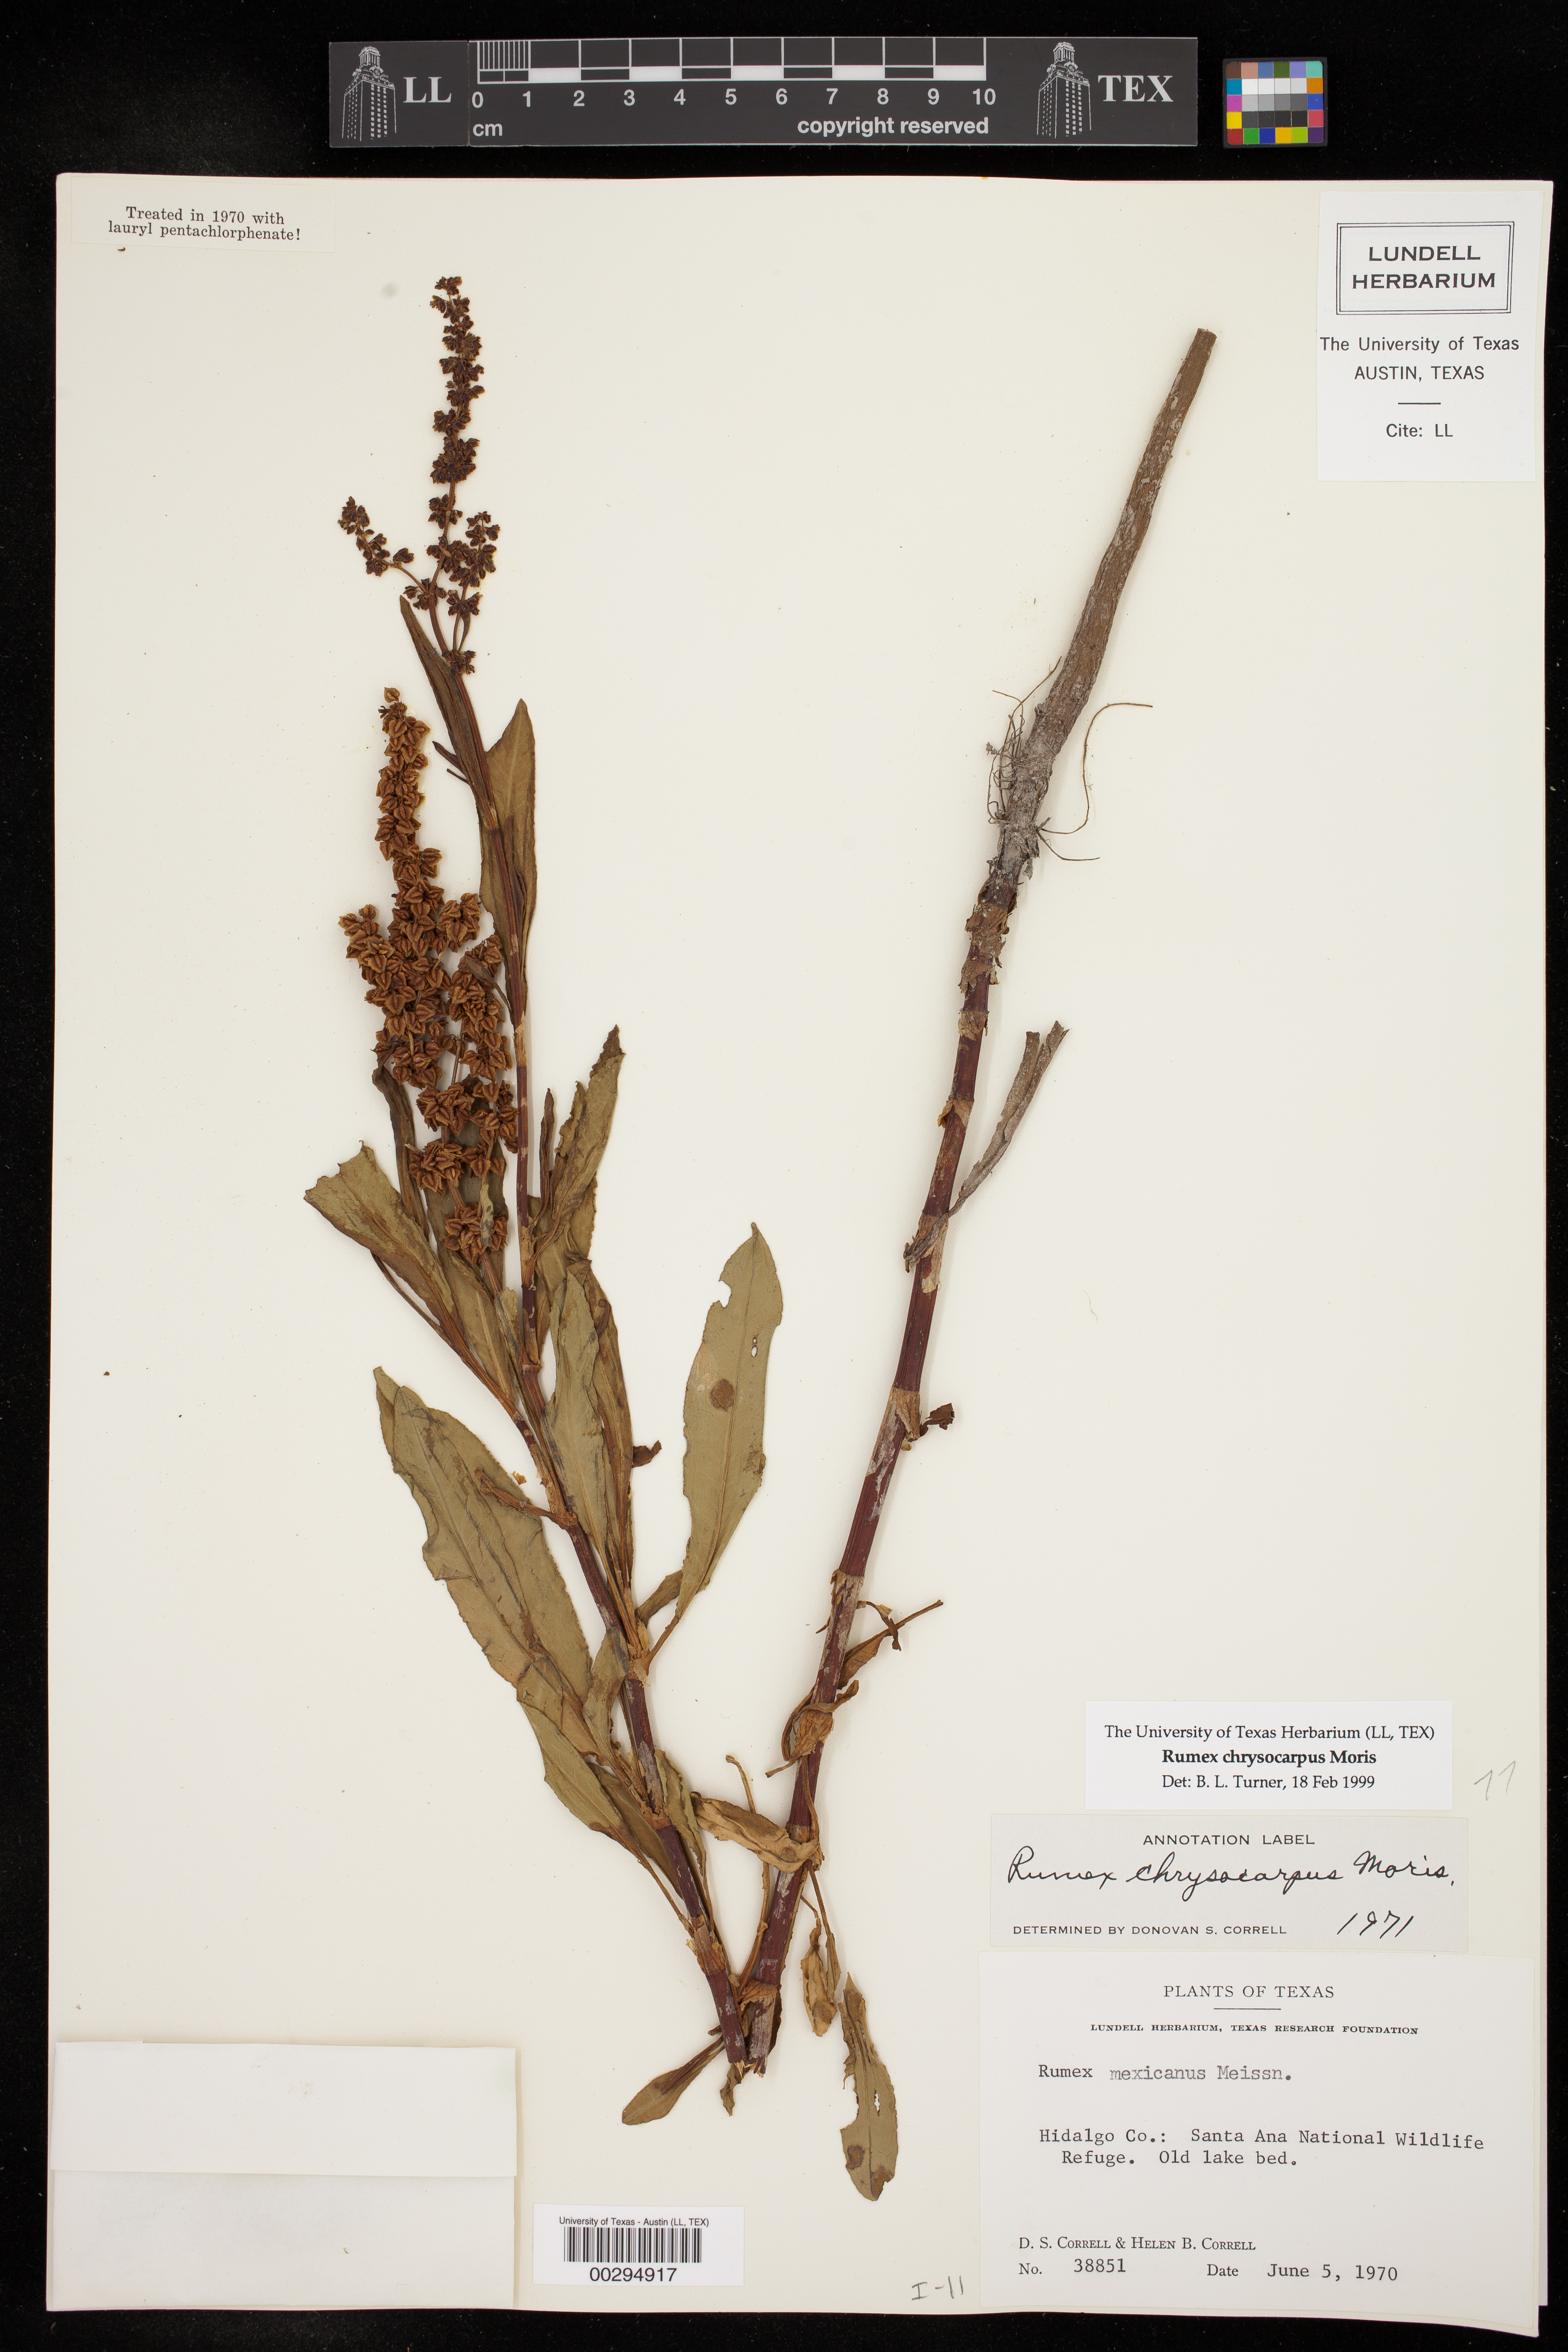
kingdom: Plantae
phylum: Tracheophyta
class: Magnoliopsida
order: Caryophyllales
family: Polygonaceae
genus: Rumex
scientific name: Rumex chrysocarpus
